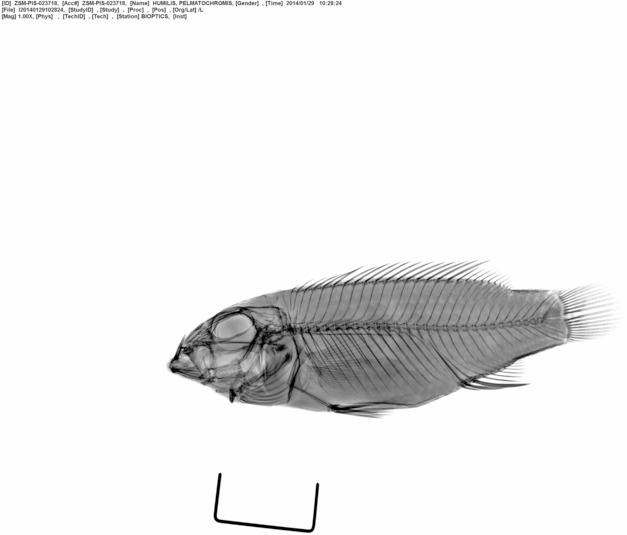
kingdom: Animalia
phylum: Chordata
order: Perciformes
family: Cichlidae
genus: Pelmatochromis
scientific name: Pelmatochromis
